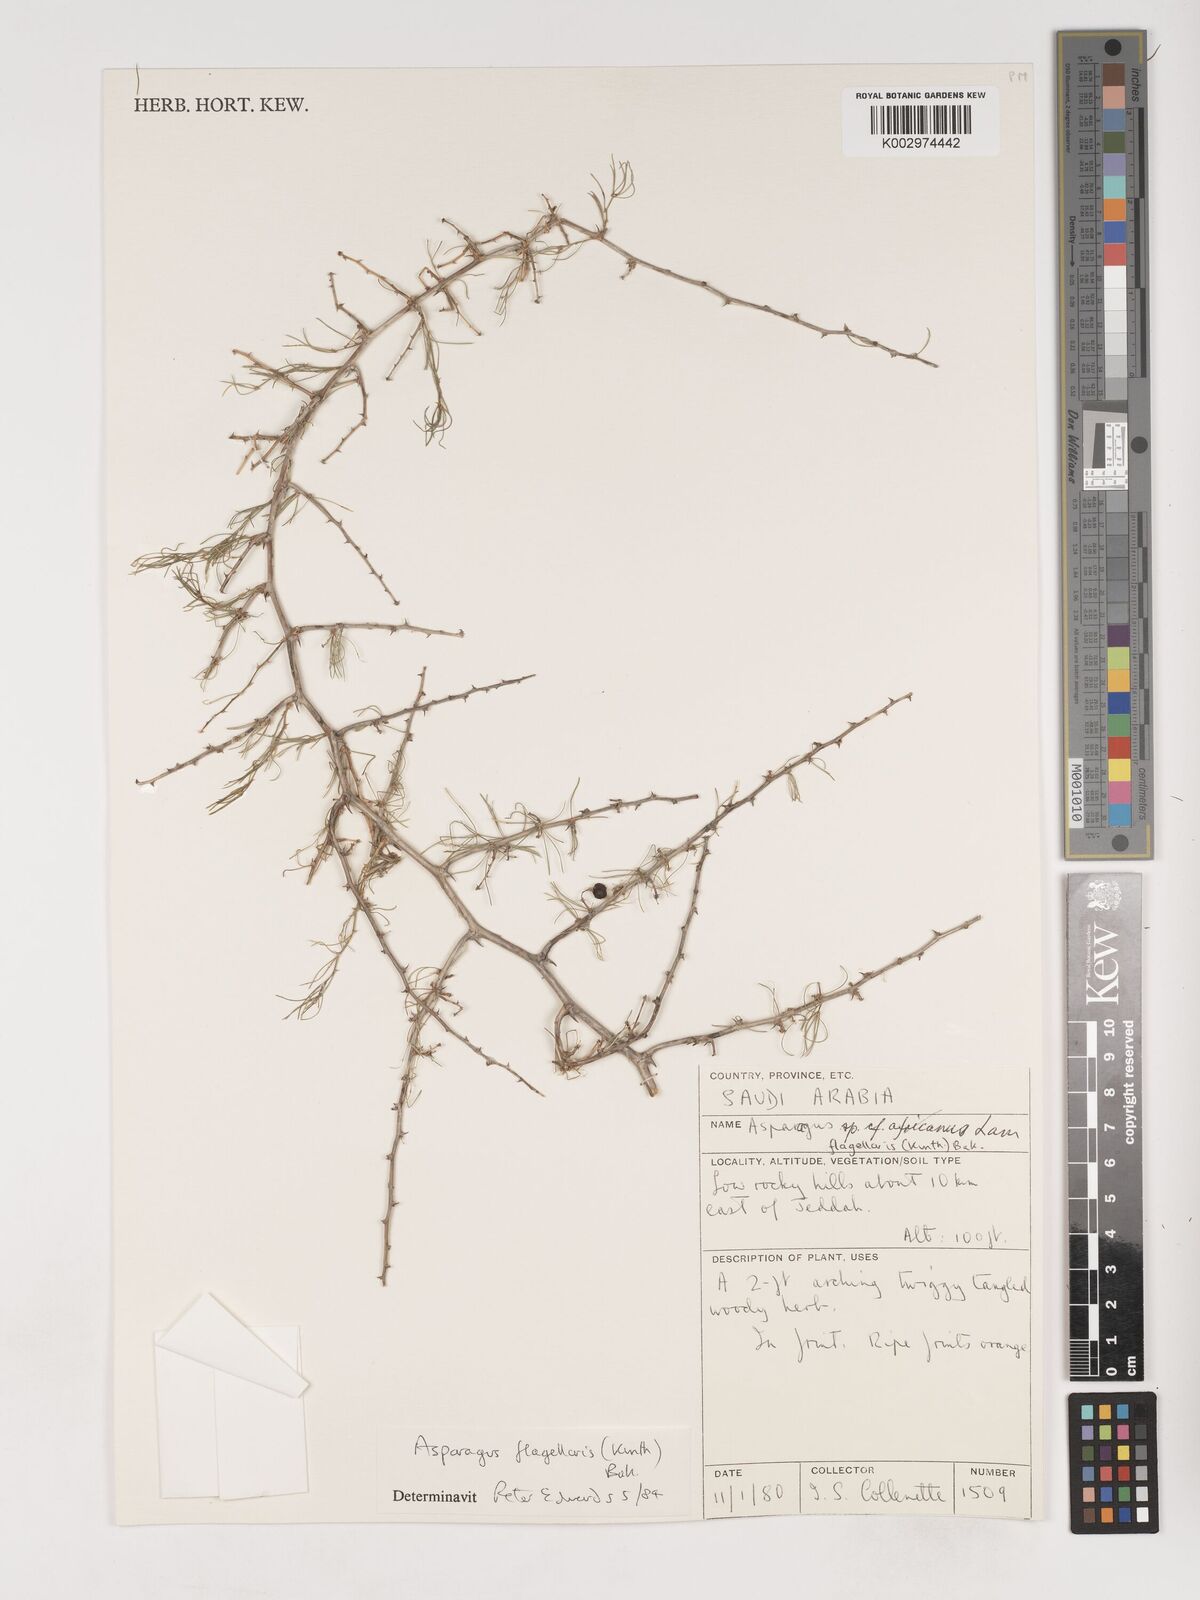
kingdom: Plantae
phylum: Tracheophyta
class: Liliopsida
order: Asparagales
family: Asparagaceae
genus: Asparagus
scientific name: Asparagus flagellaris
